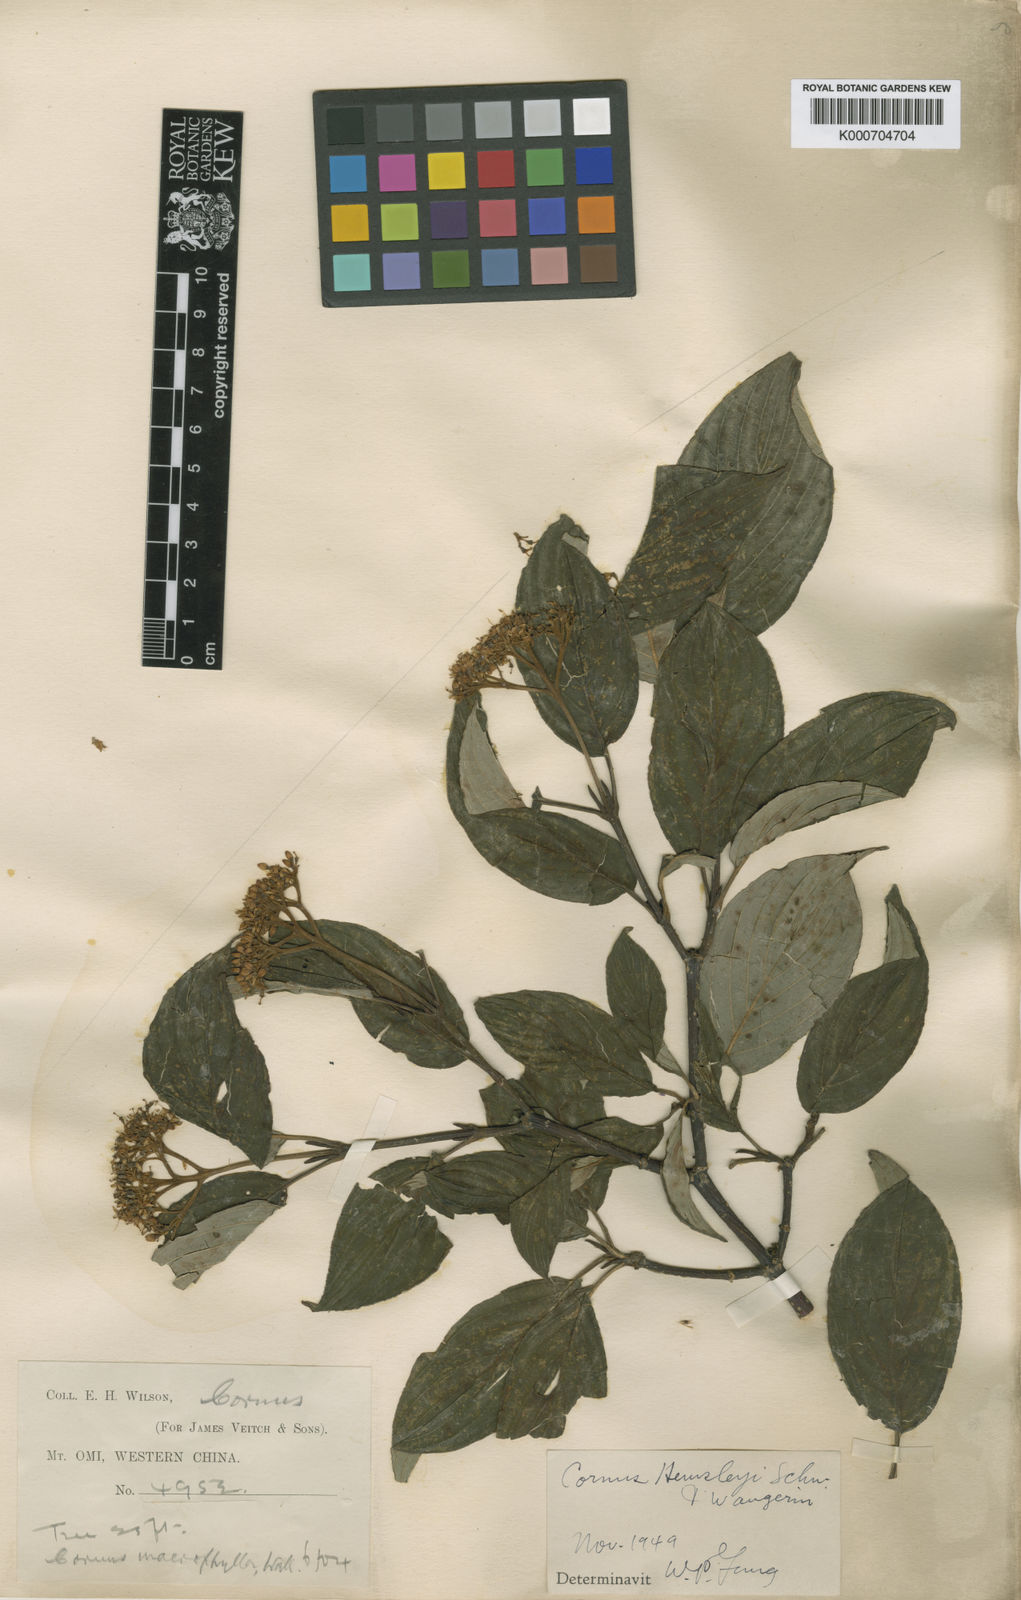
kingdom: Plantae
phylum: Tracheophyta
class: Magnoliopsida
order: Cornales
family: Cornaceae
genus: Cornus
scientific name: Cornus hemsleyi
